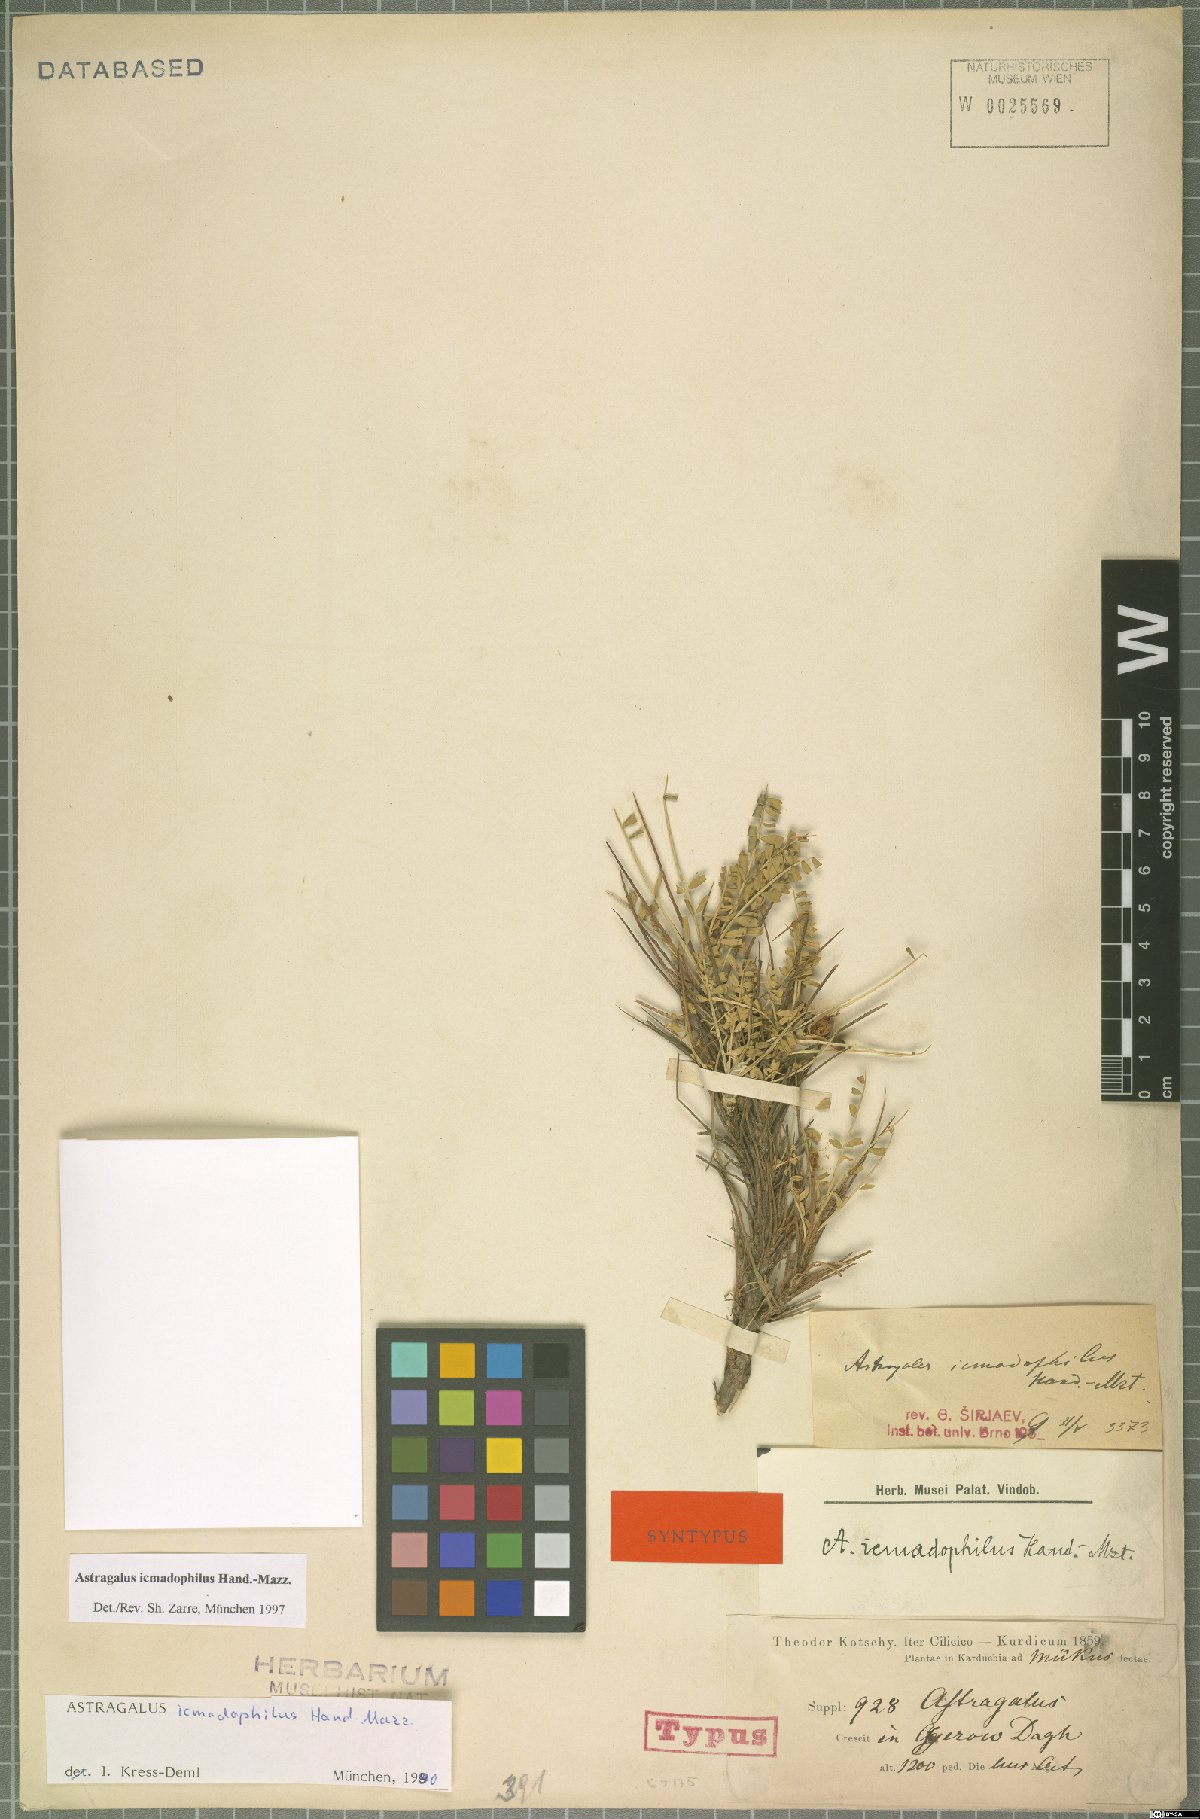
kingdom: Plantae
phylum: Tracheophyta
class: Magnoliopsida
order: Fabales
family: Fabaceae
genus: Astragalus
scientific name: Astragalus icmadophilus
